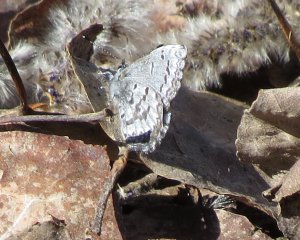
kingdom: Animalia
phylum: Arthropoda
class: Insecta
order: Lepidoptera
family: Lycaenidae
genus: Celastrina
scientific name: Celastrina lucia
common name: Northern Spring Azure
